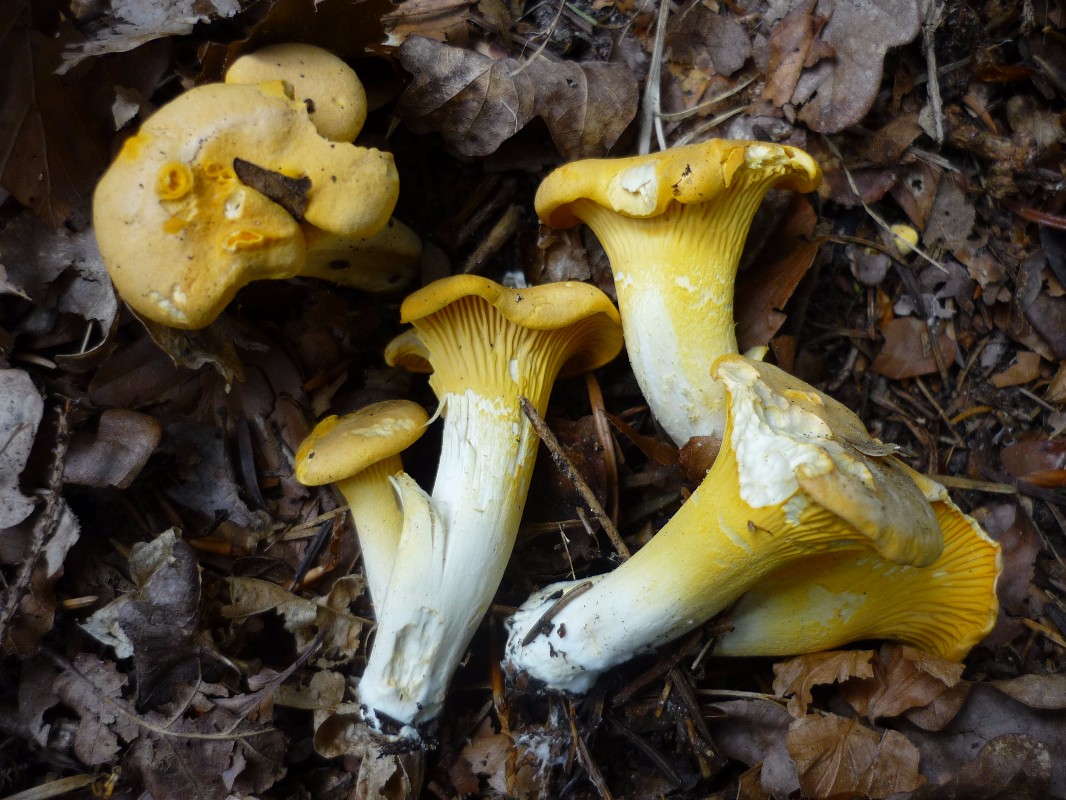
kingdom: Fungi
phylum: Basidiomycota
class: Agaricomycetes
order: Cantharellales
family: Hydnaceae
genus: Cantharellus
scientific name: Cantharellus pallens
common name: bleg kantarel
